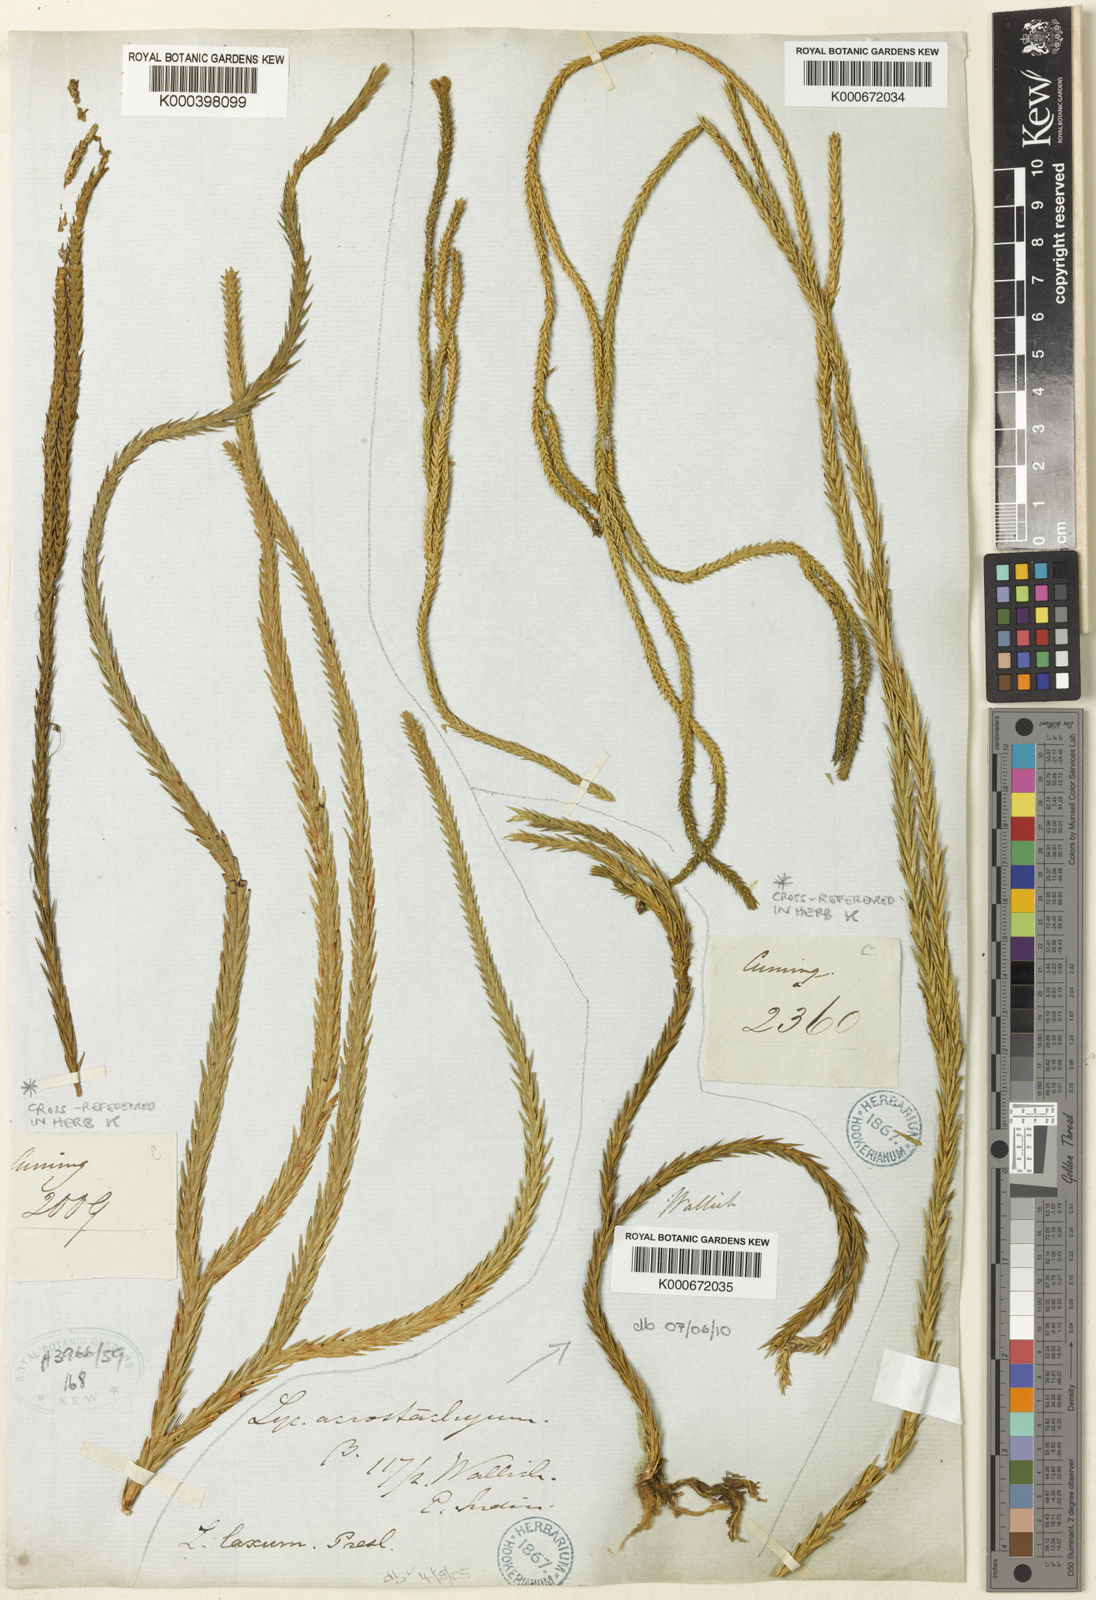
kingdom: Plantae
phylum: Tracheophyta
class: Lycopodiopsida
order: Lycopodiales
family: Lycopodiaceae
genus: Phlegmariurus
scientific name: Phlegmariurus carinatus
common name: Keeled tassel-fern
